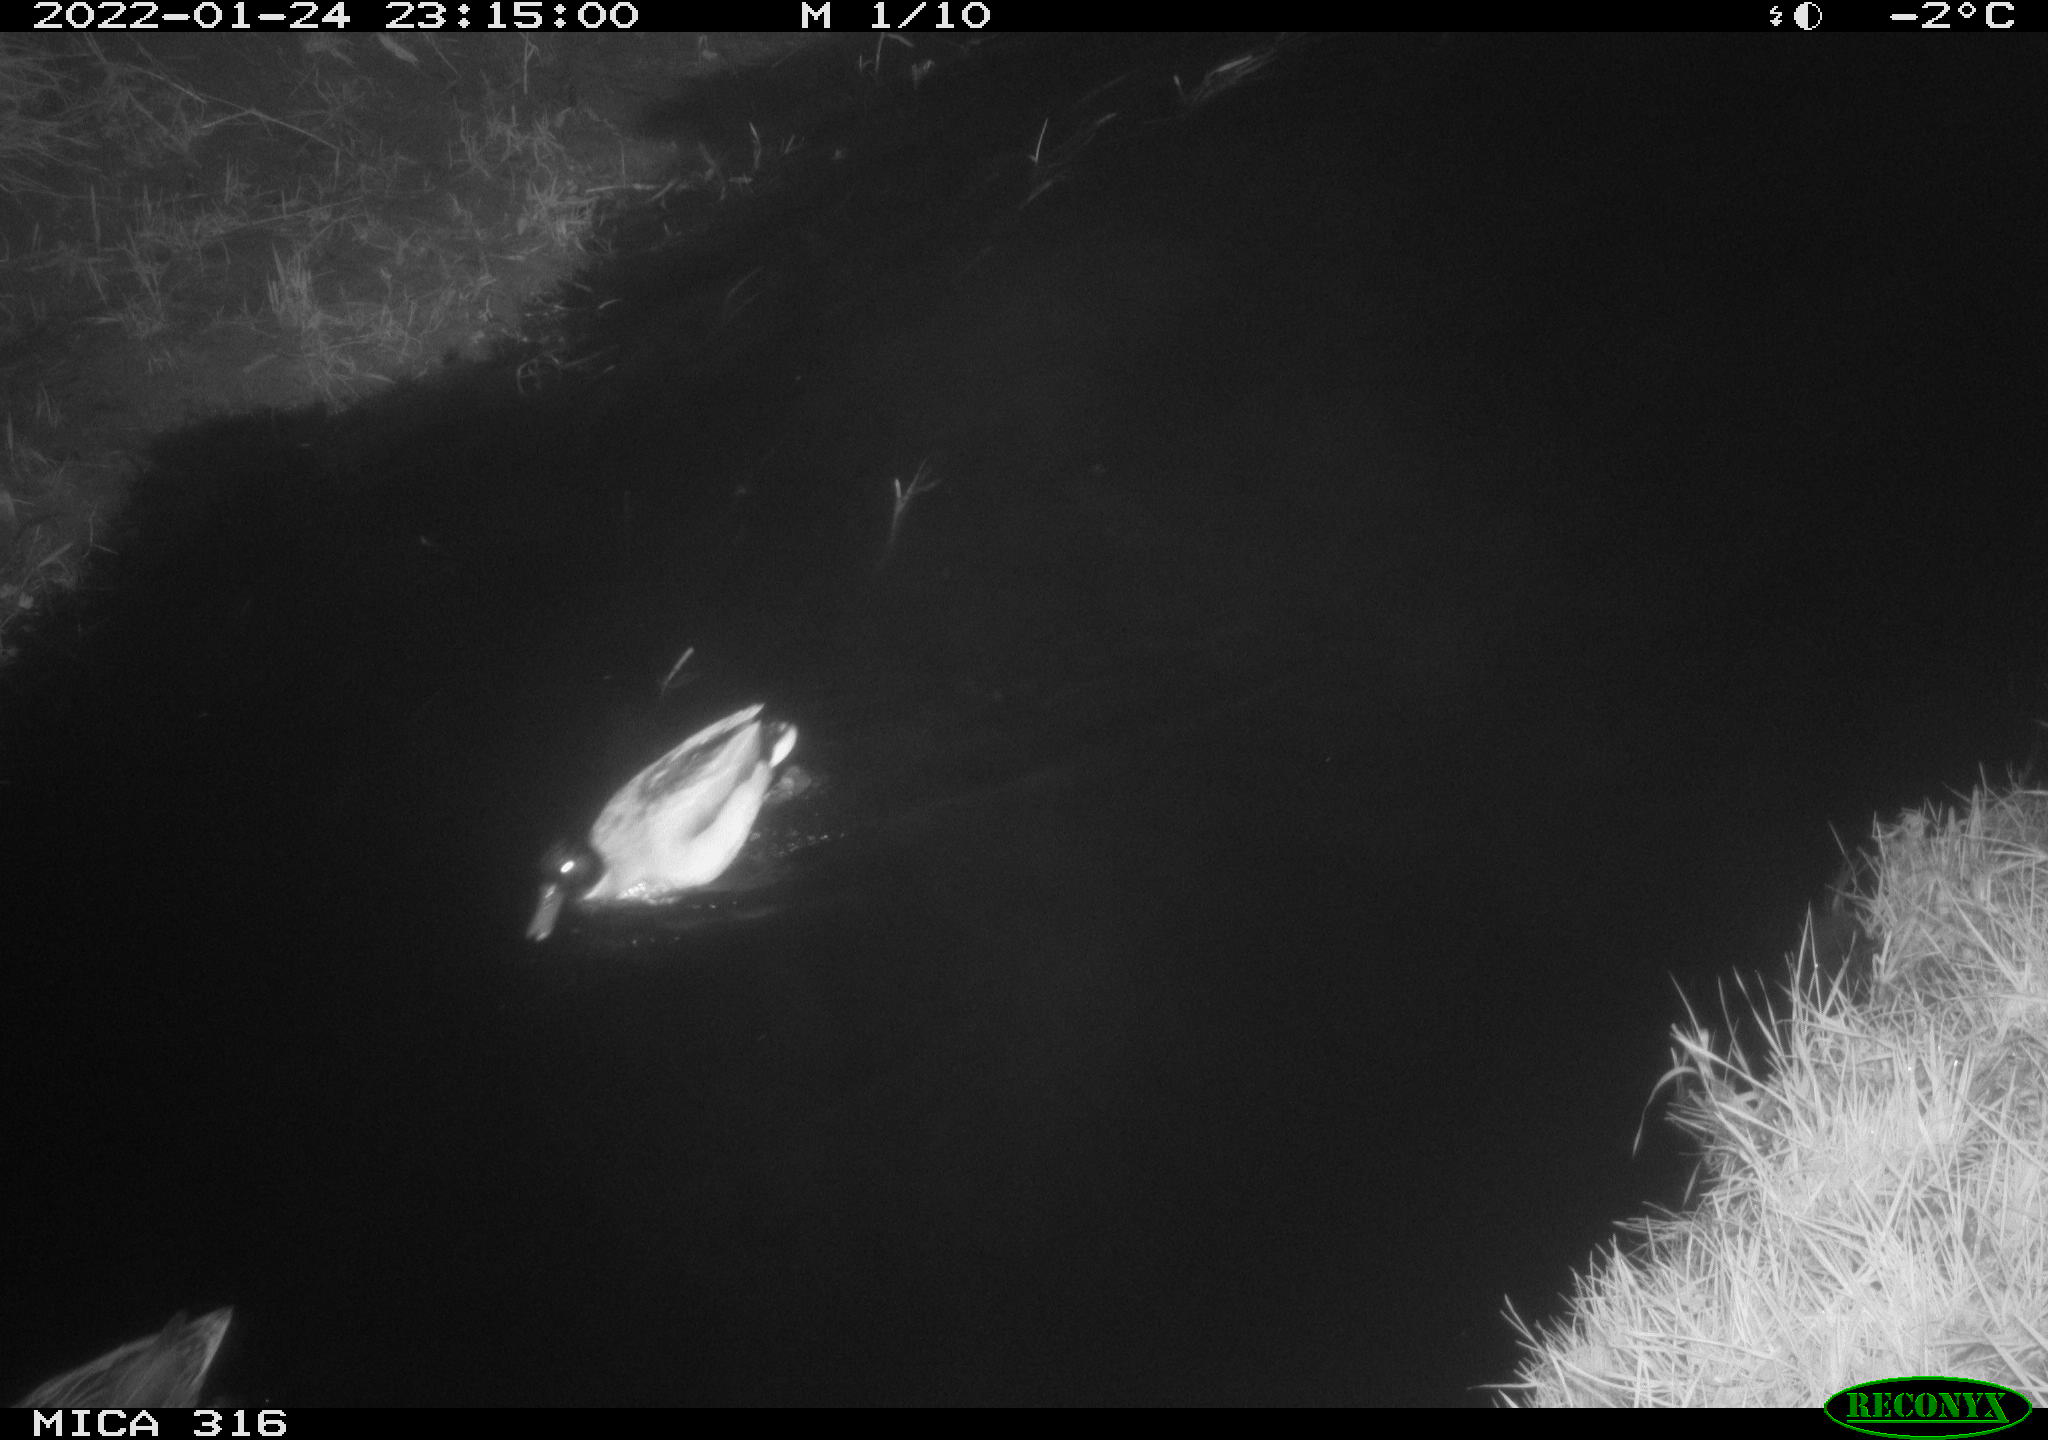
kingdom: Animalia
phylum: Chordata
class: Aves
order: Anseriformes
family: Anatidae
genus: Anas
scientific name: Anas platyrhynchos
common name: Mallard
